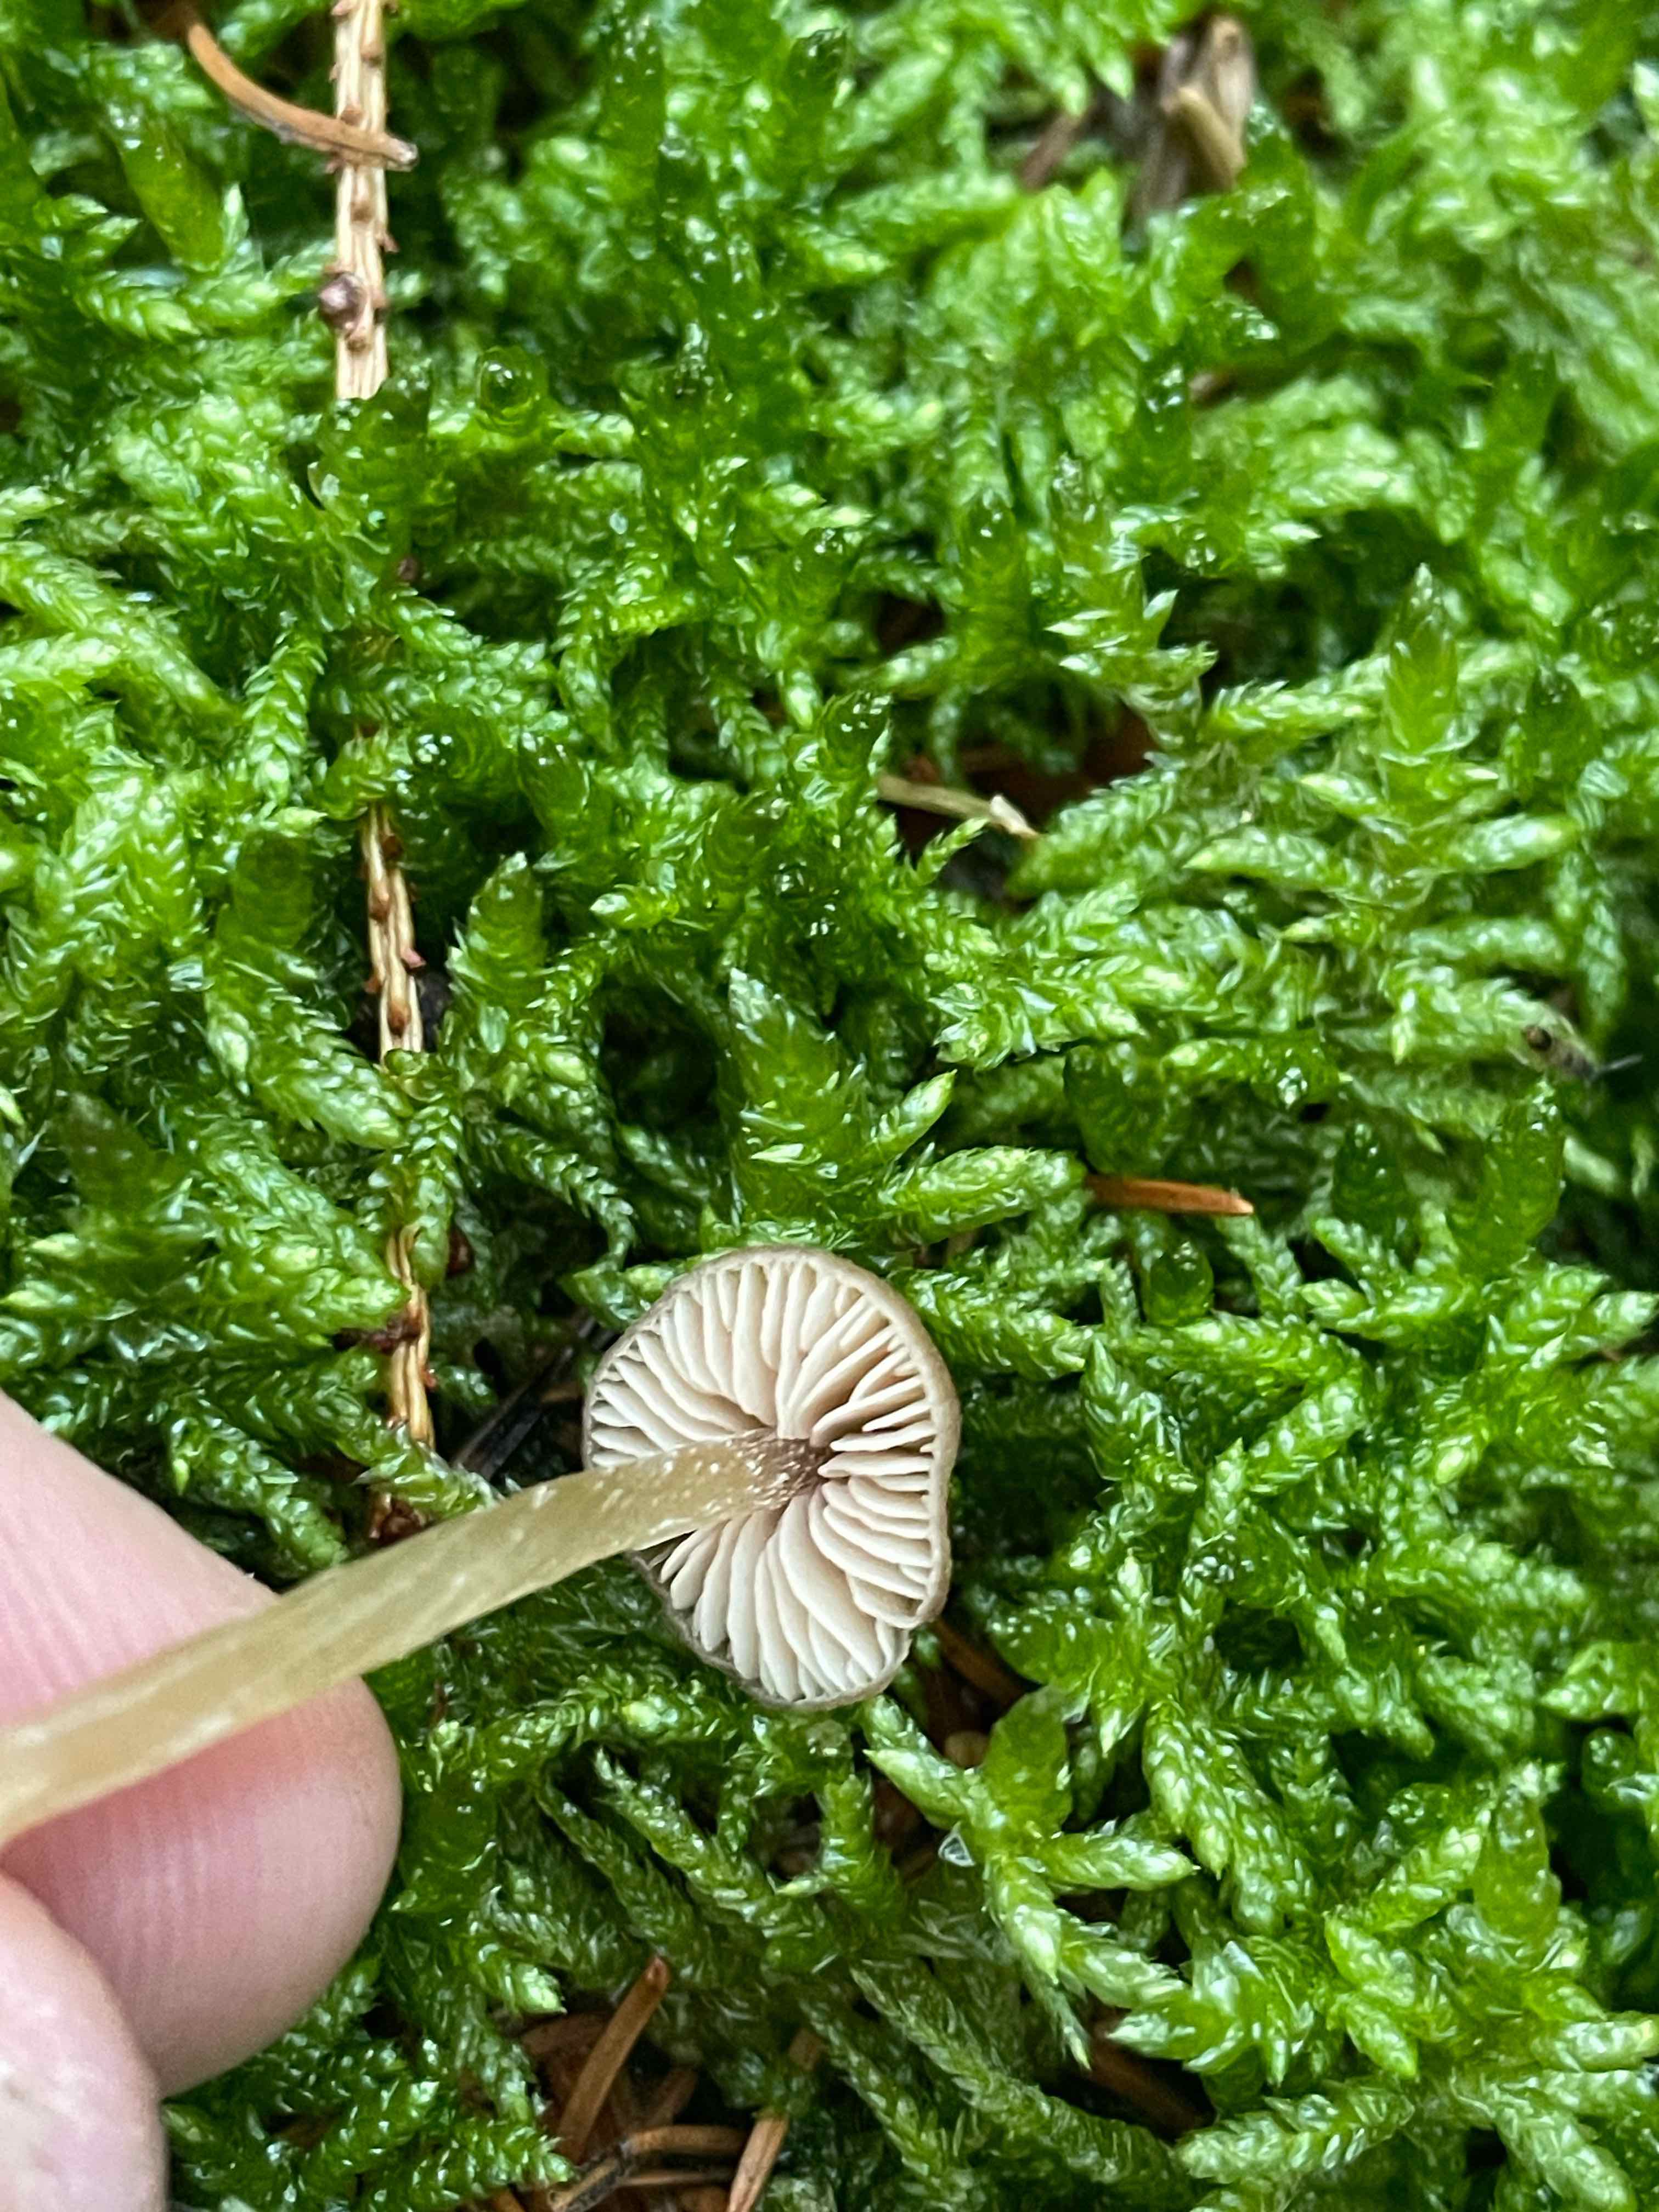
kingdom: Fungi
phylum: Basidiomycota
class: Agaricomycetes
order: Agaricales
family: Entolomataceae
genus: Entoloma
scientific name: Entoloma cetratum
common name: voks-rødblad
